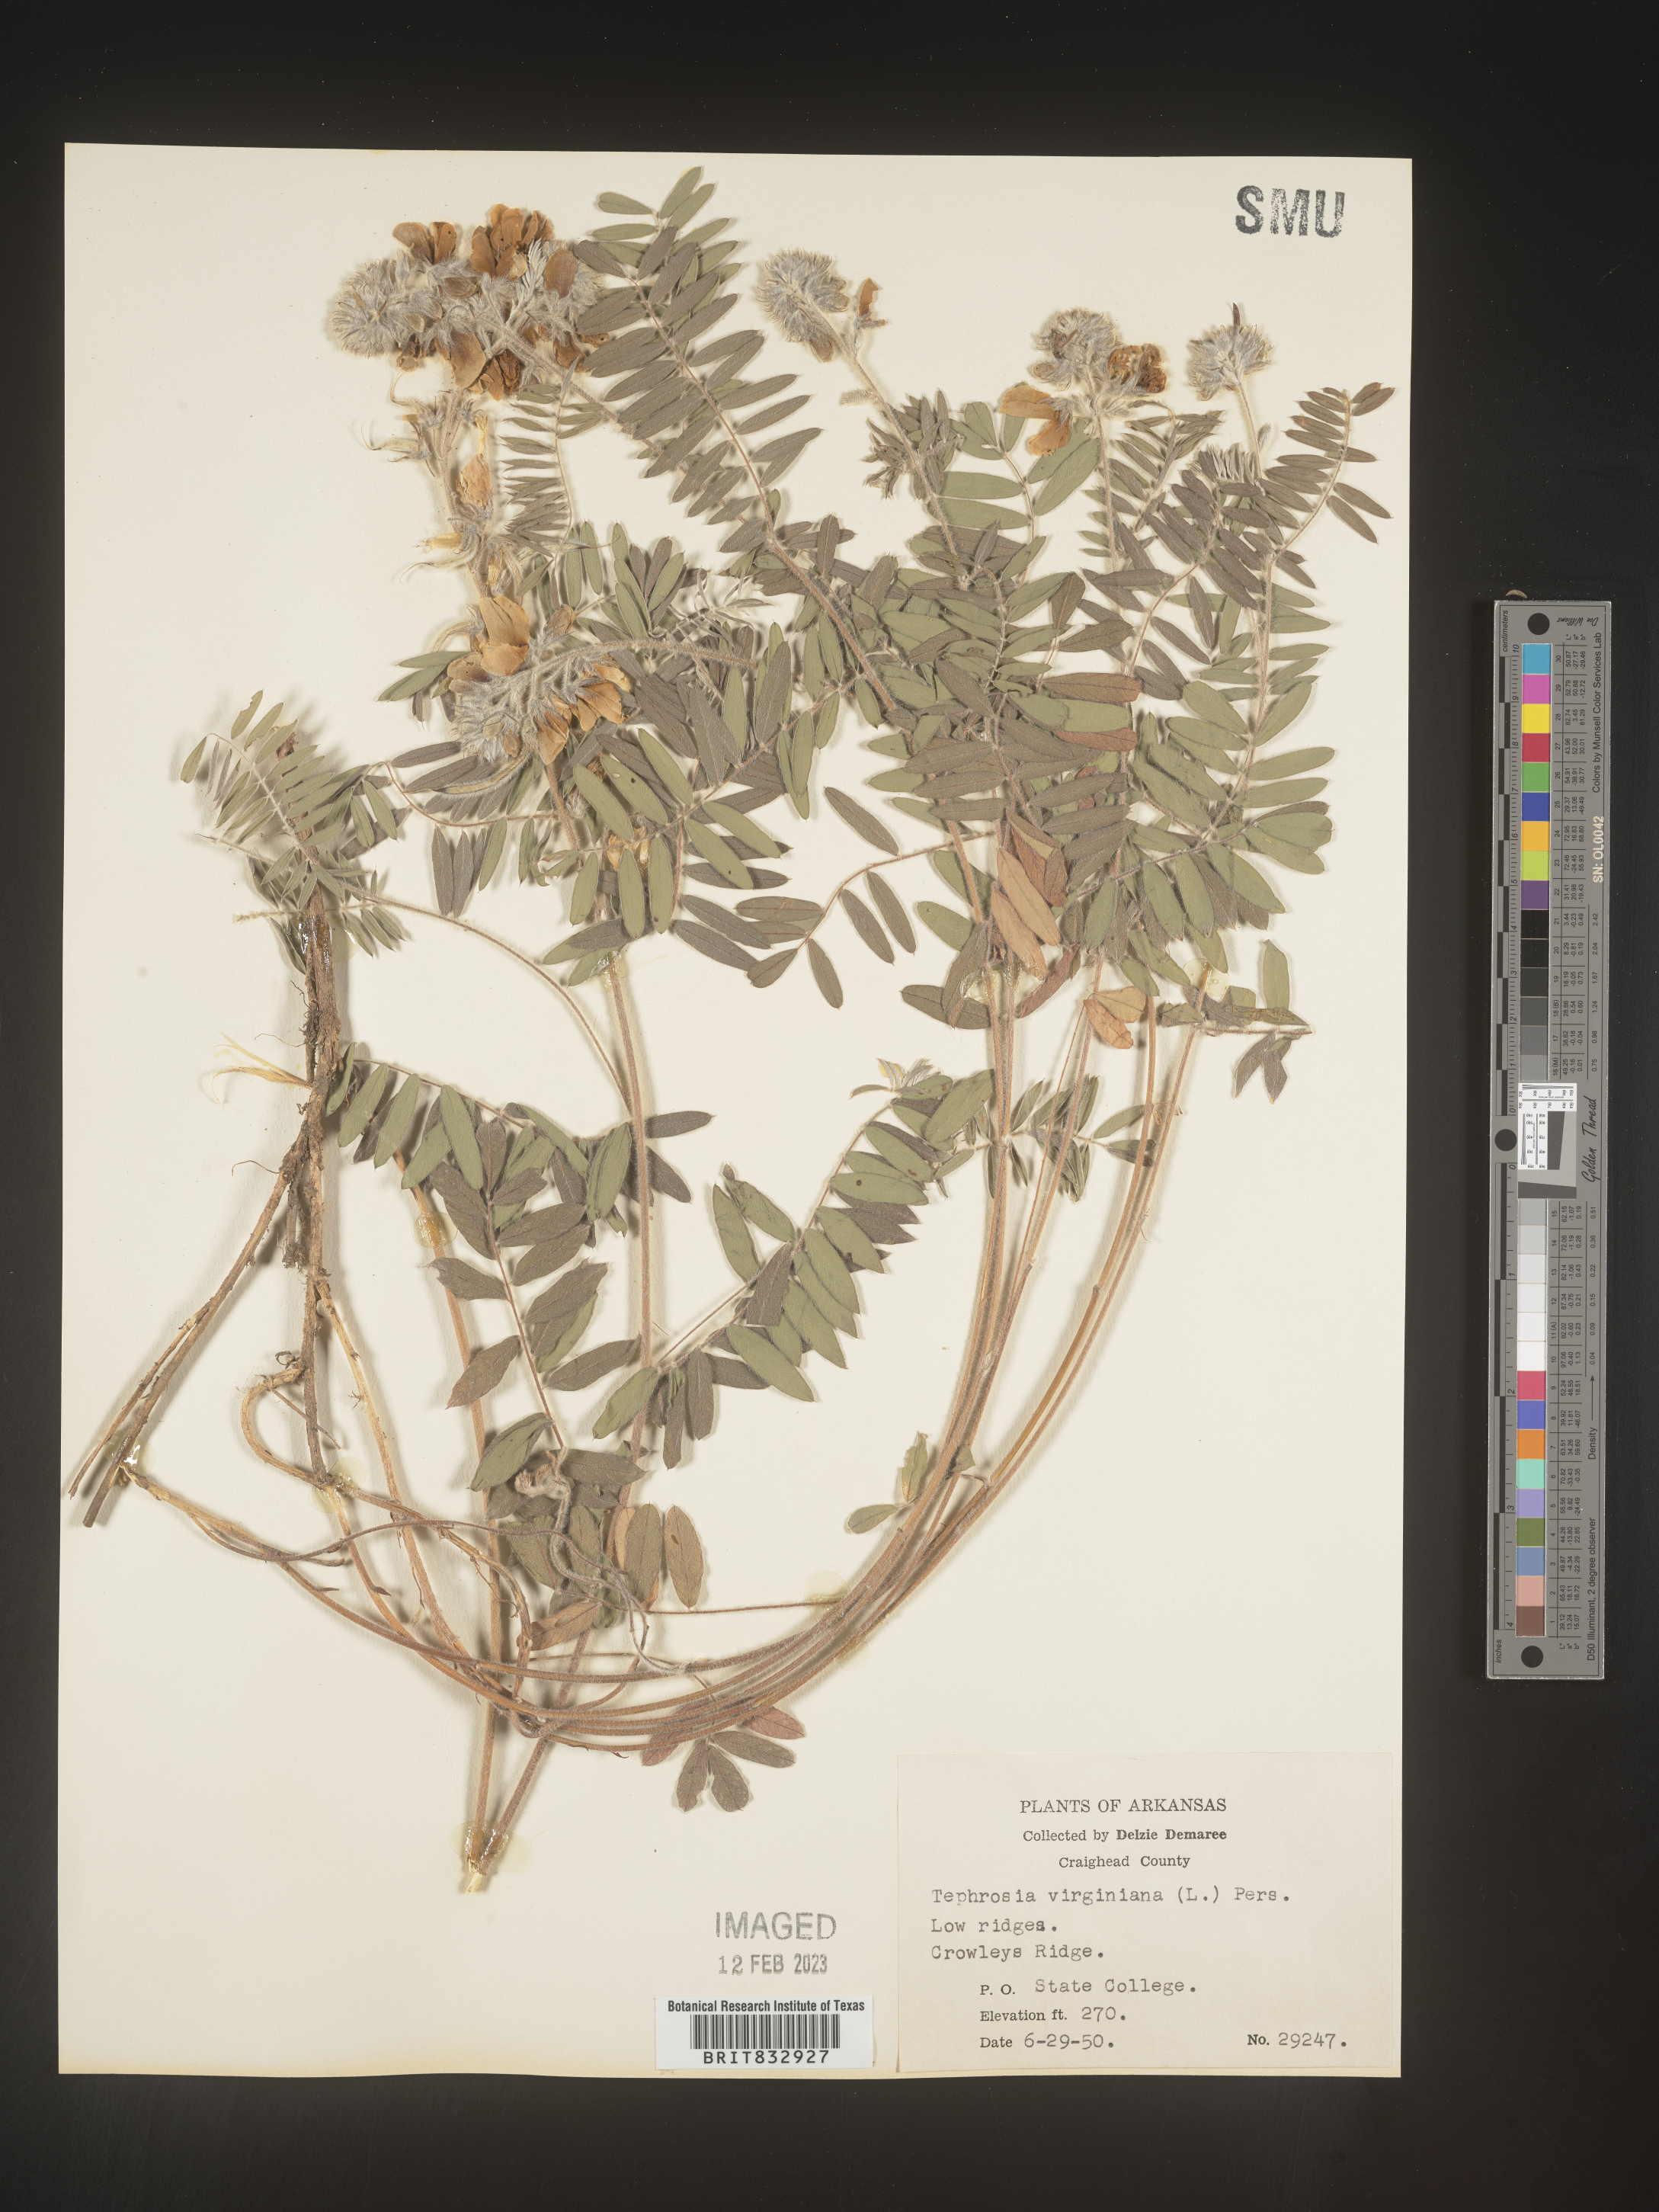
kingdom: Plantae
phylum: Tracheophyta
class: Magnoliopsida
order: Fabales
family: Fabaceae
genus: Tephrosia
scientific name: Tephrosia virginiana
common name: Rabbit-pea
